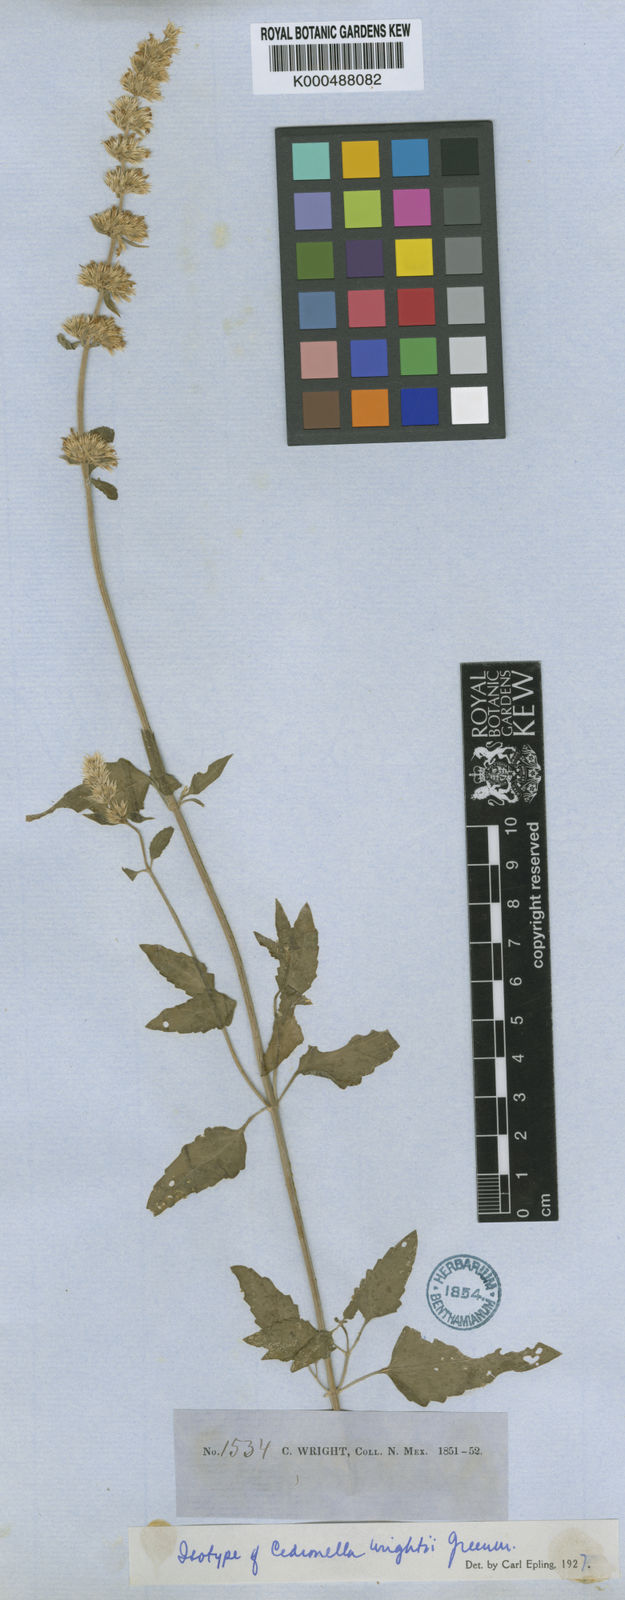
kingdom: Plantae
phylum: Tracheophyta
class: Magnoliopsida
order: Lamiales
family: Lamiaceae
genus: Agastache
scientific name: Agastache wrightii
